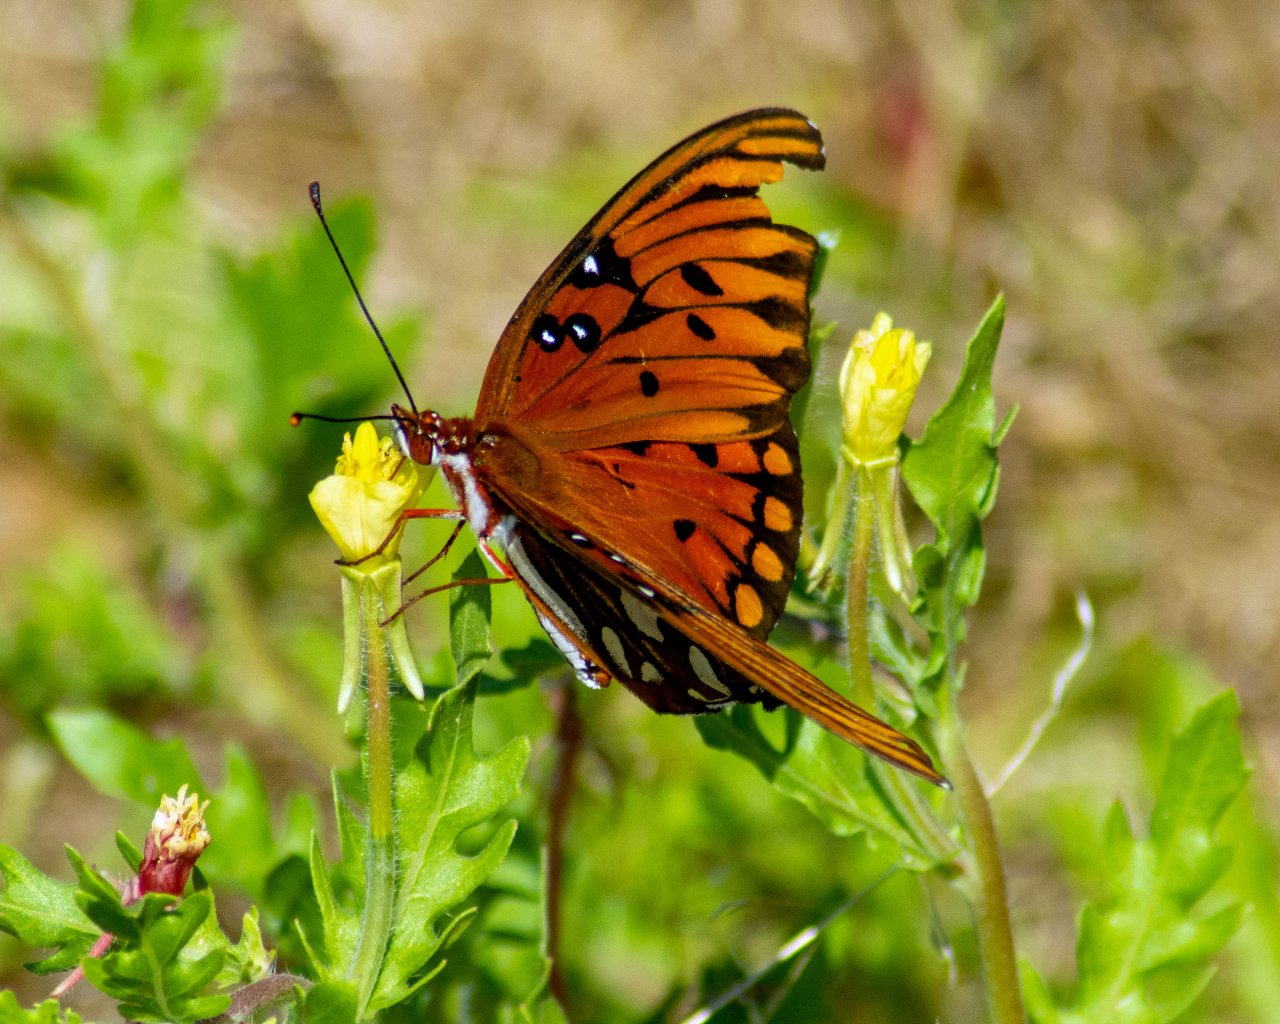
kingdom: Animalia
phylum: Arthropoda
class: Insecta
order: Lepidoptera
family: Nymphalidae
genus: Dione
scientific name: Dione vanillae
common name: Gulf Fritillary
